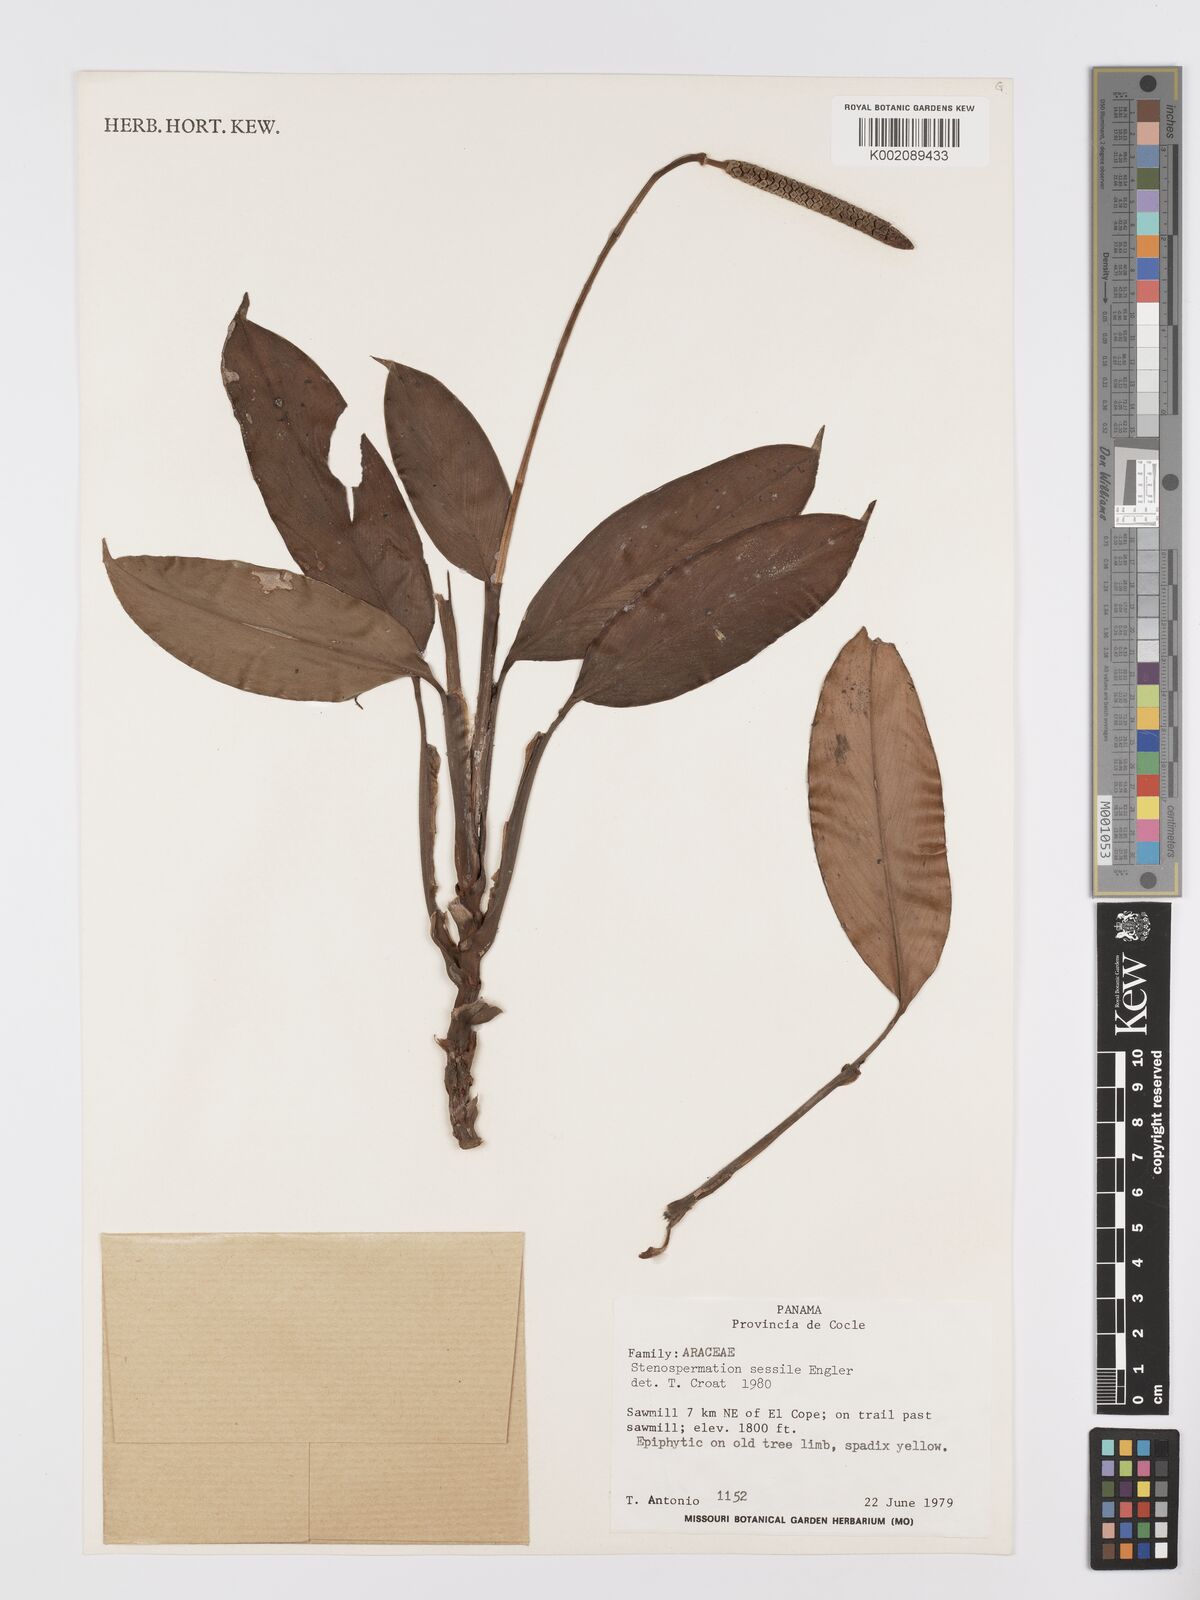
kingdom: Plantae
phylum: Tracheophyta
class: Liliopsida
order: Alismatales
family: Araceae
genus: Stenospermation
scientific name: Stenospermation sessile
